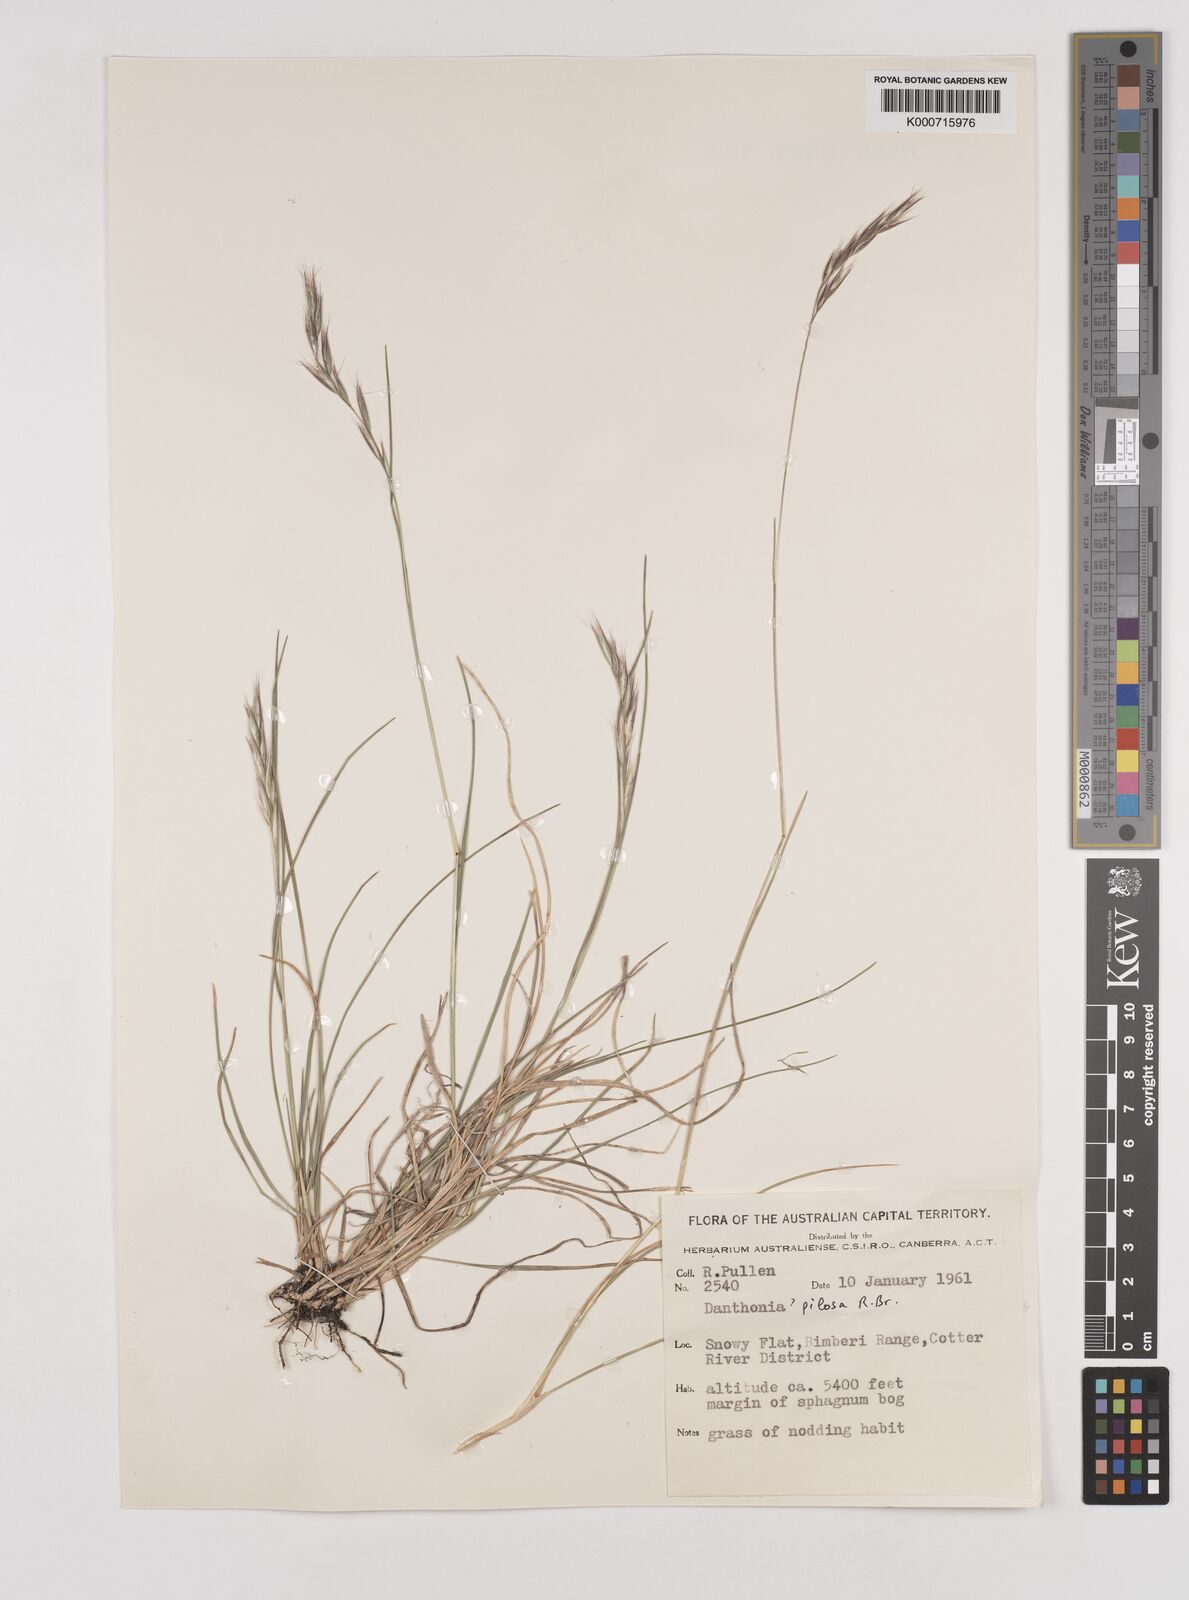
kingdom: Plantae
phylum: Tracheophyta
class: Liliopsida
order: Poales
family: Poaceae
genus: Rytidosperma
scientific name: Rytidosperma pilosum
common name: Hairy wallaby grass
